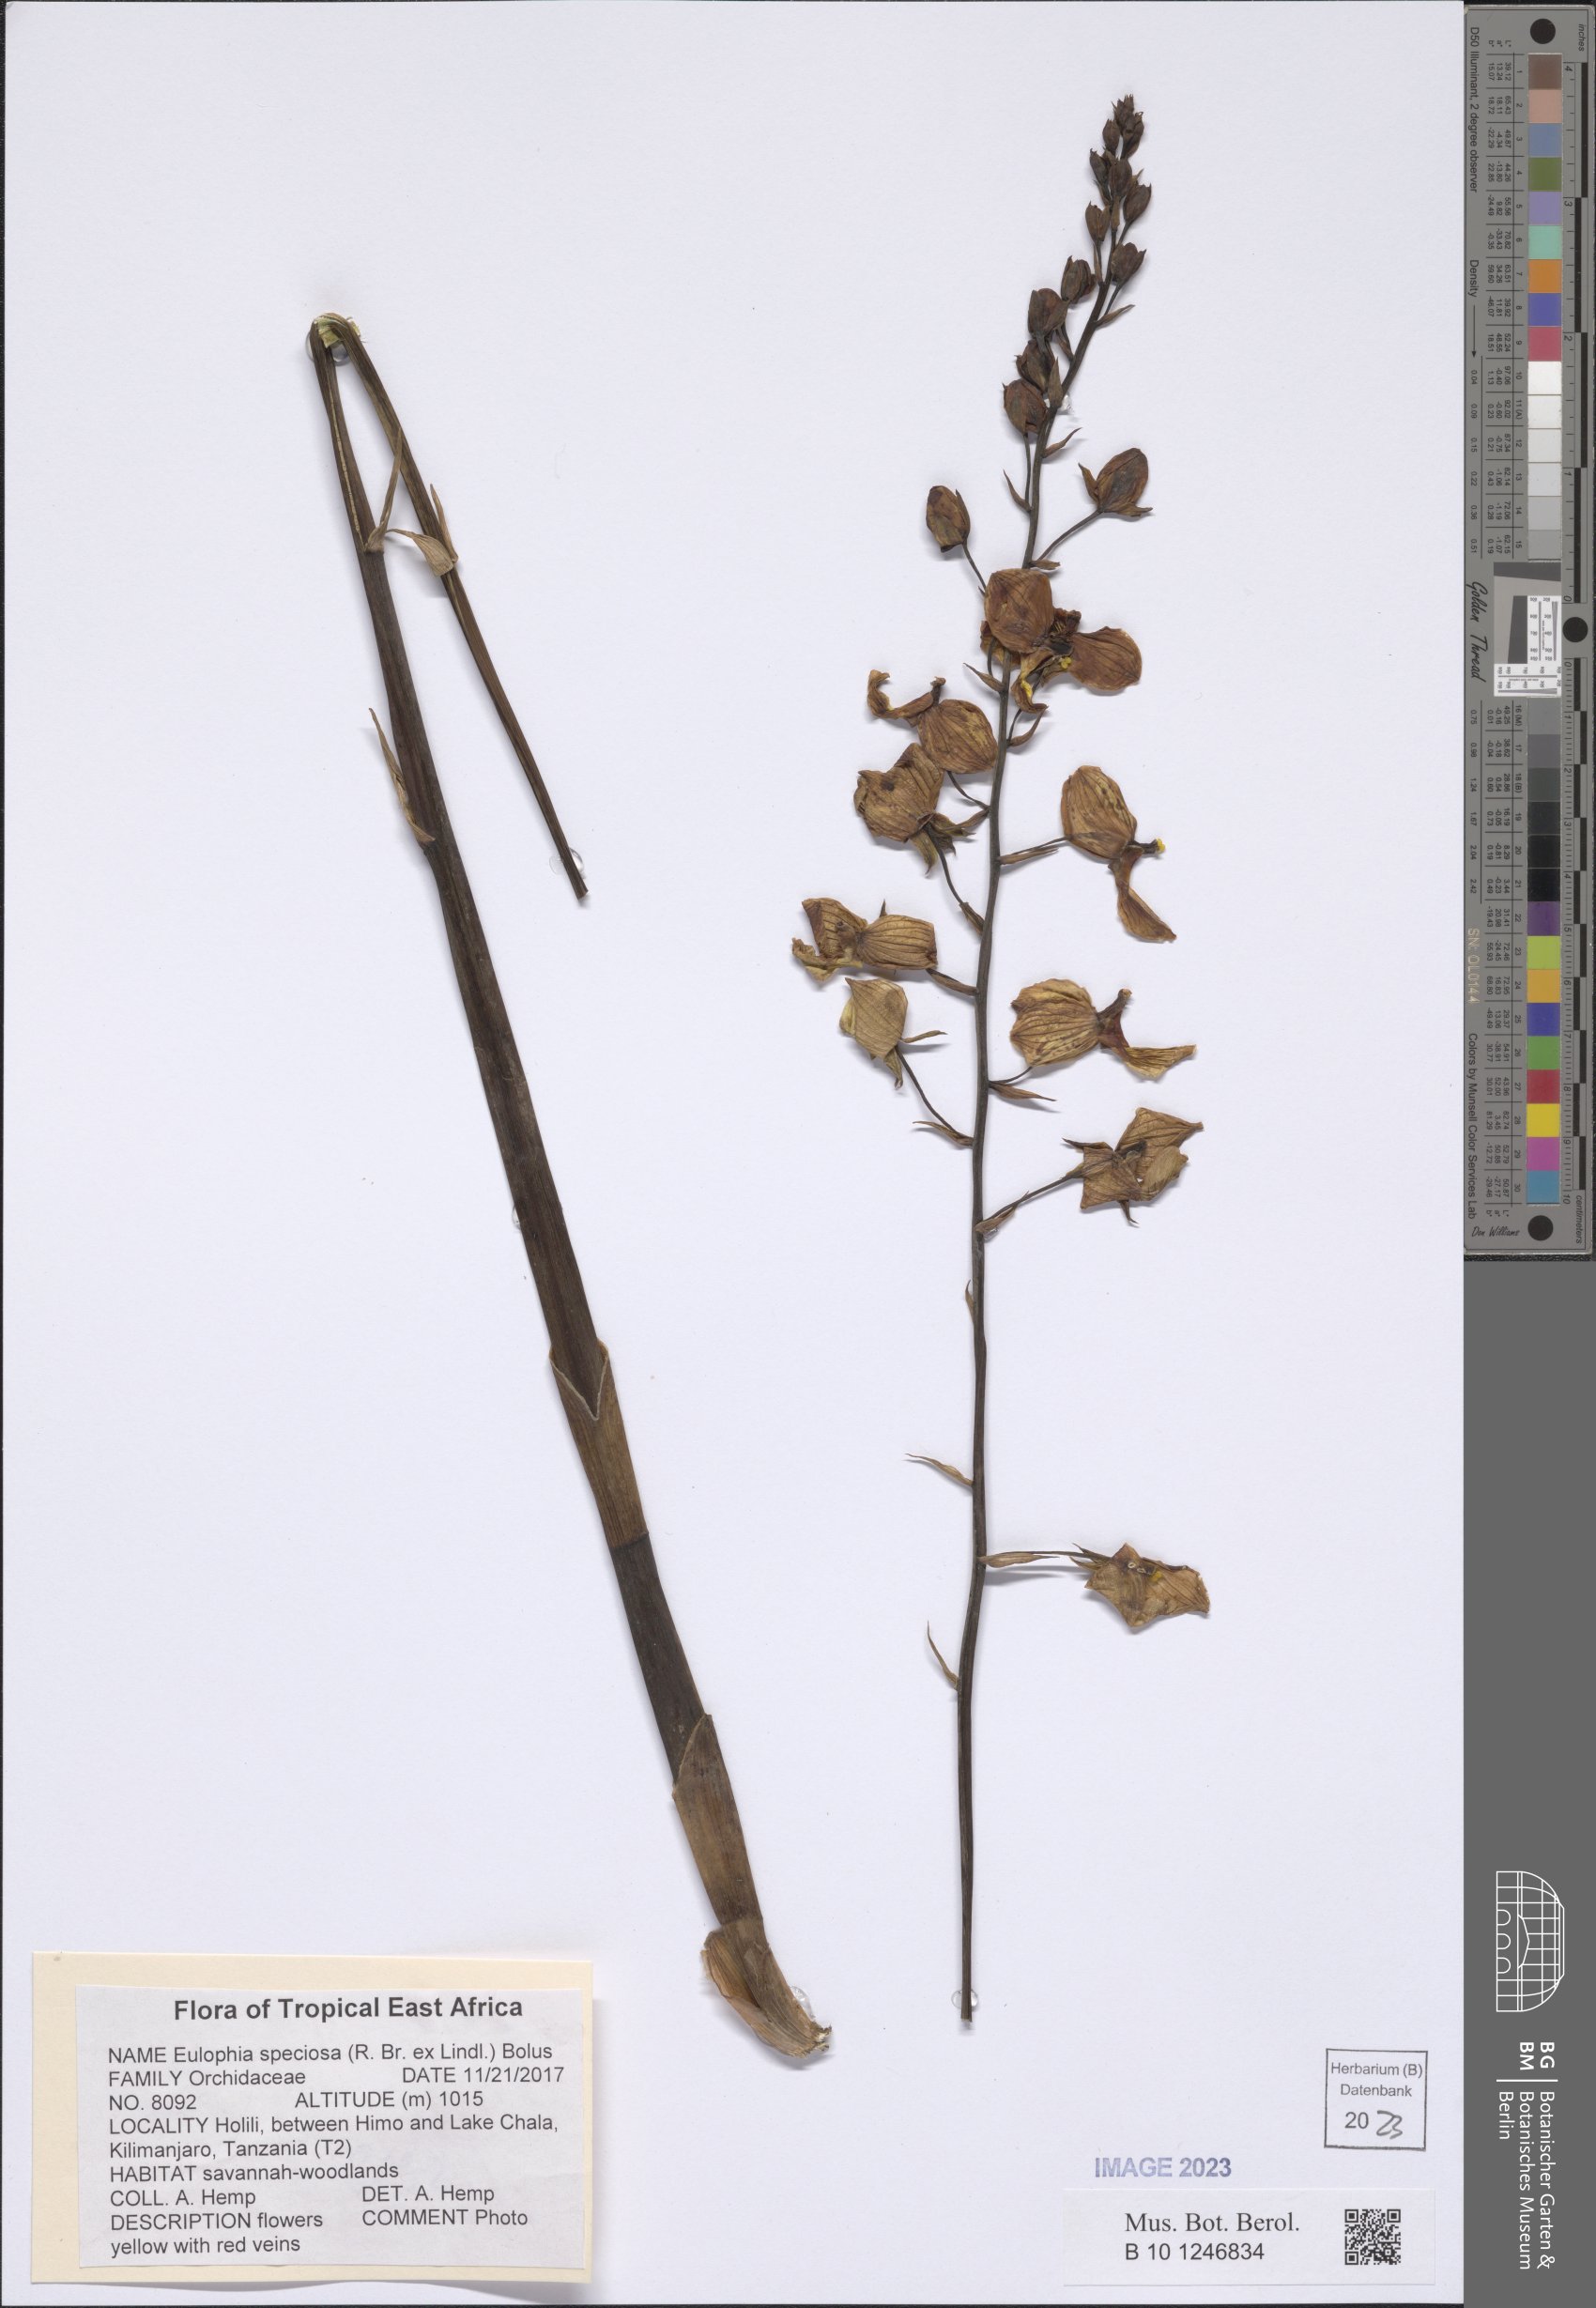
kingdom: Plantae
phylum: Tracheophyta
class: Liliopsida
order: Asparagales
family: Orchidaceae
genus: Eulophia
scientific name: Eulophia speciosa
